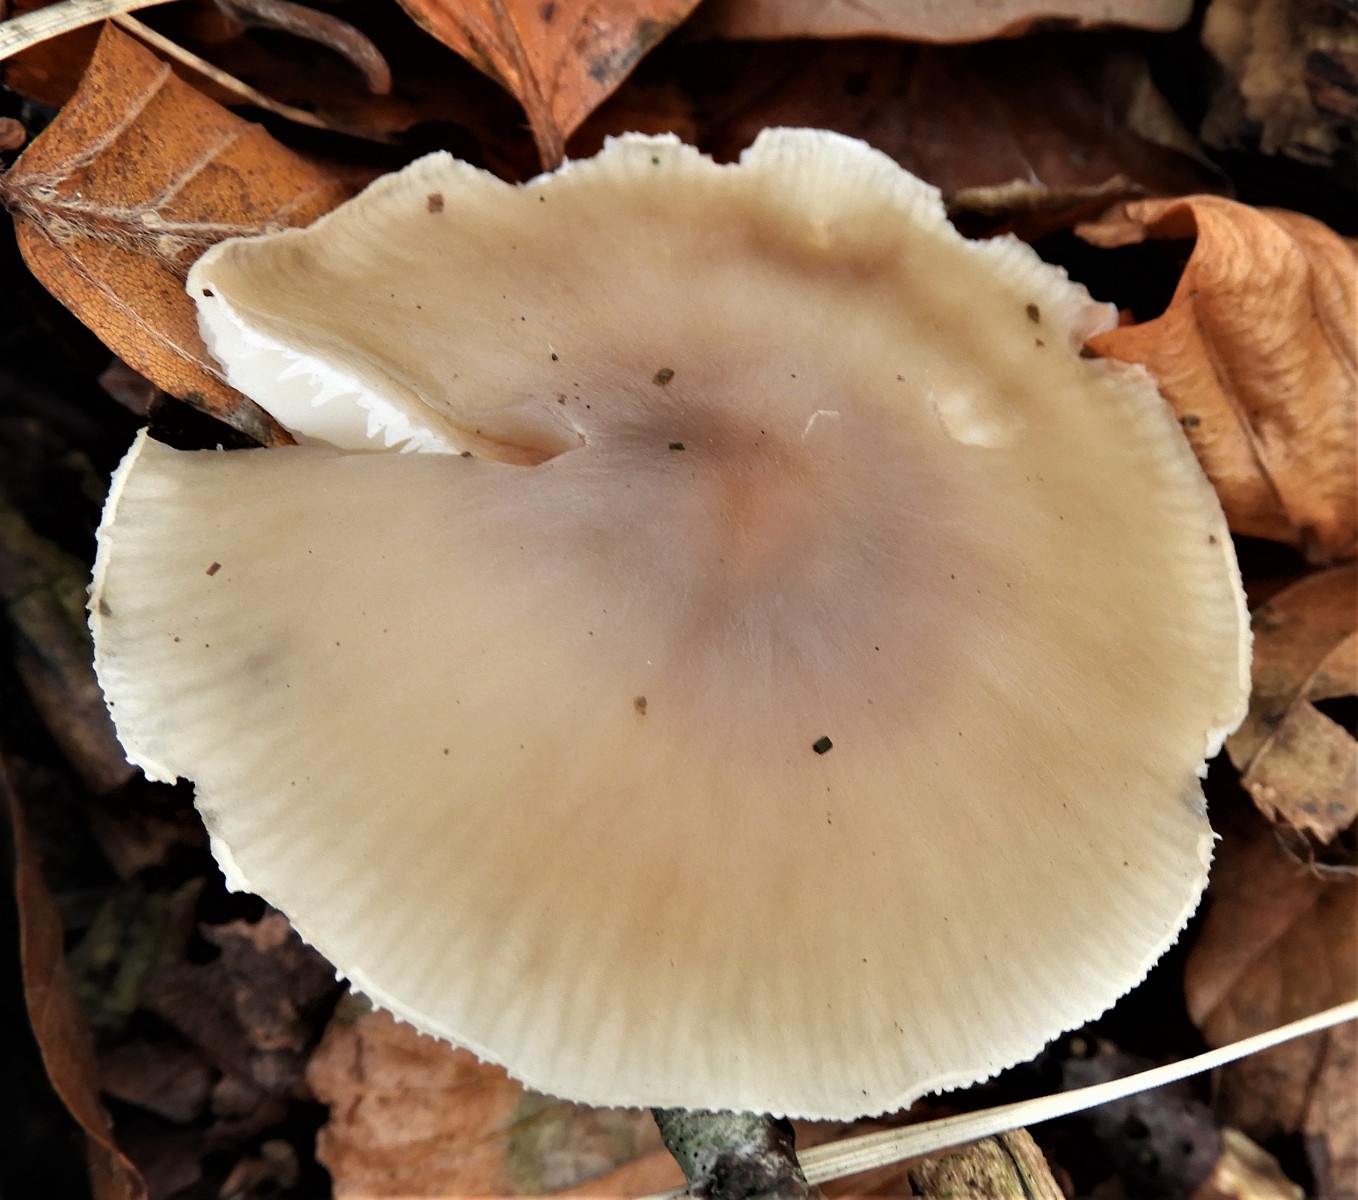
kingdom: Fungi
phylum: Basidiomycota
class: Agaricomycetes
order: Agaricales
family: Omphalotaceae
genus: Rhodocollybia
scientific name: Rhodocollybia asema
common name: horngrå fladhat
